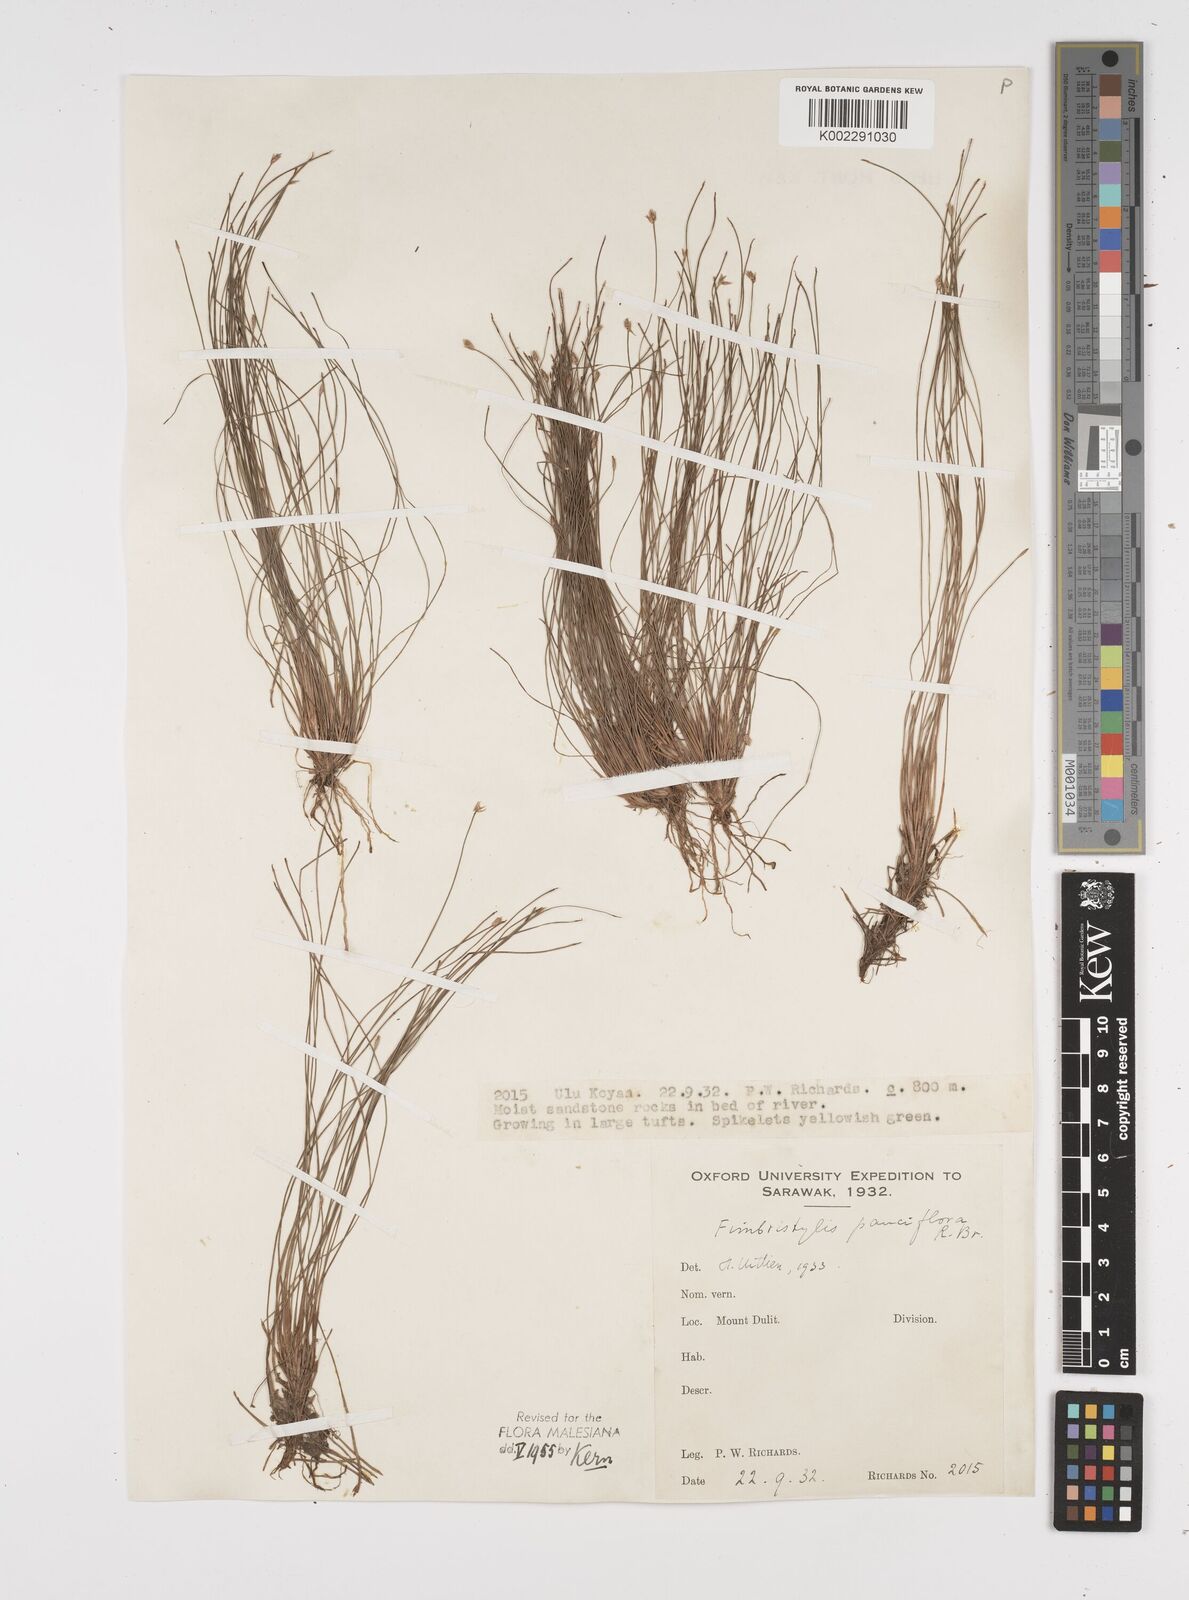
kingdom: Plantae
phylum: Tracheophyta
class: Liliopsida
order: Poales
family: Cyperaceae
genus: Fimbristylis
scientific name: Fimbristylis pauciflora
